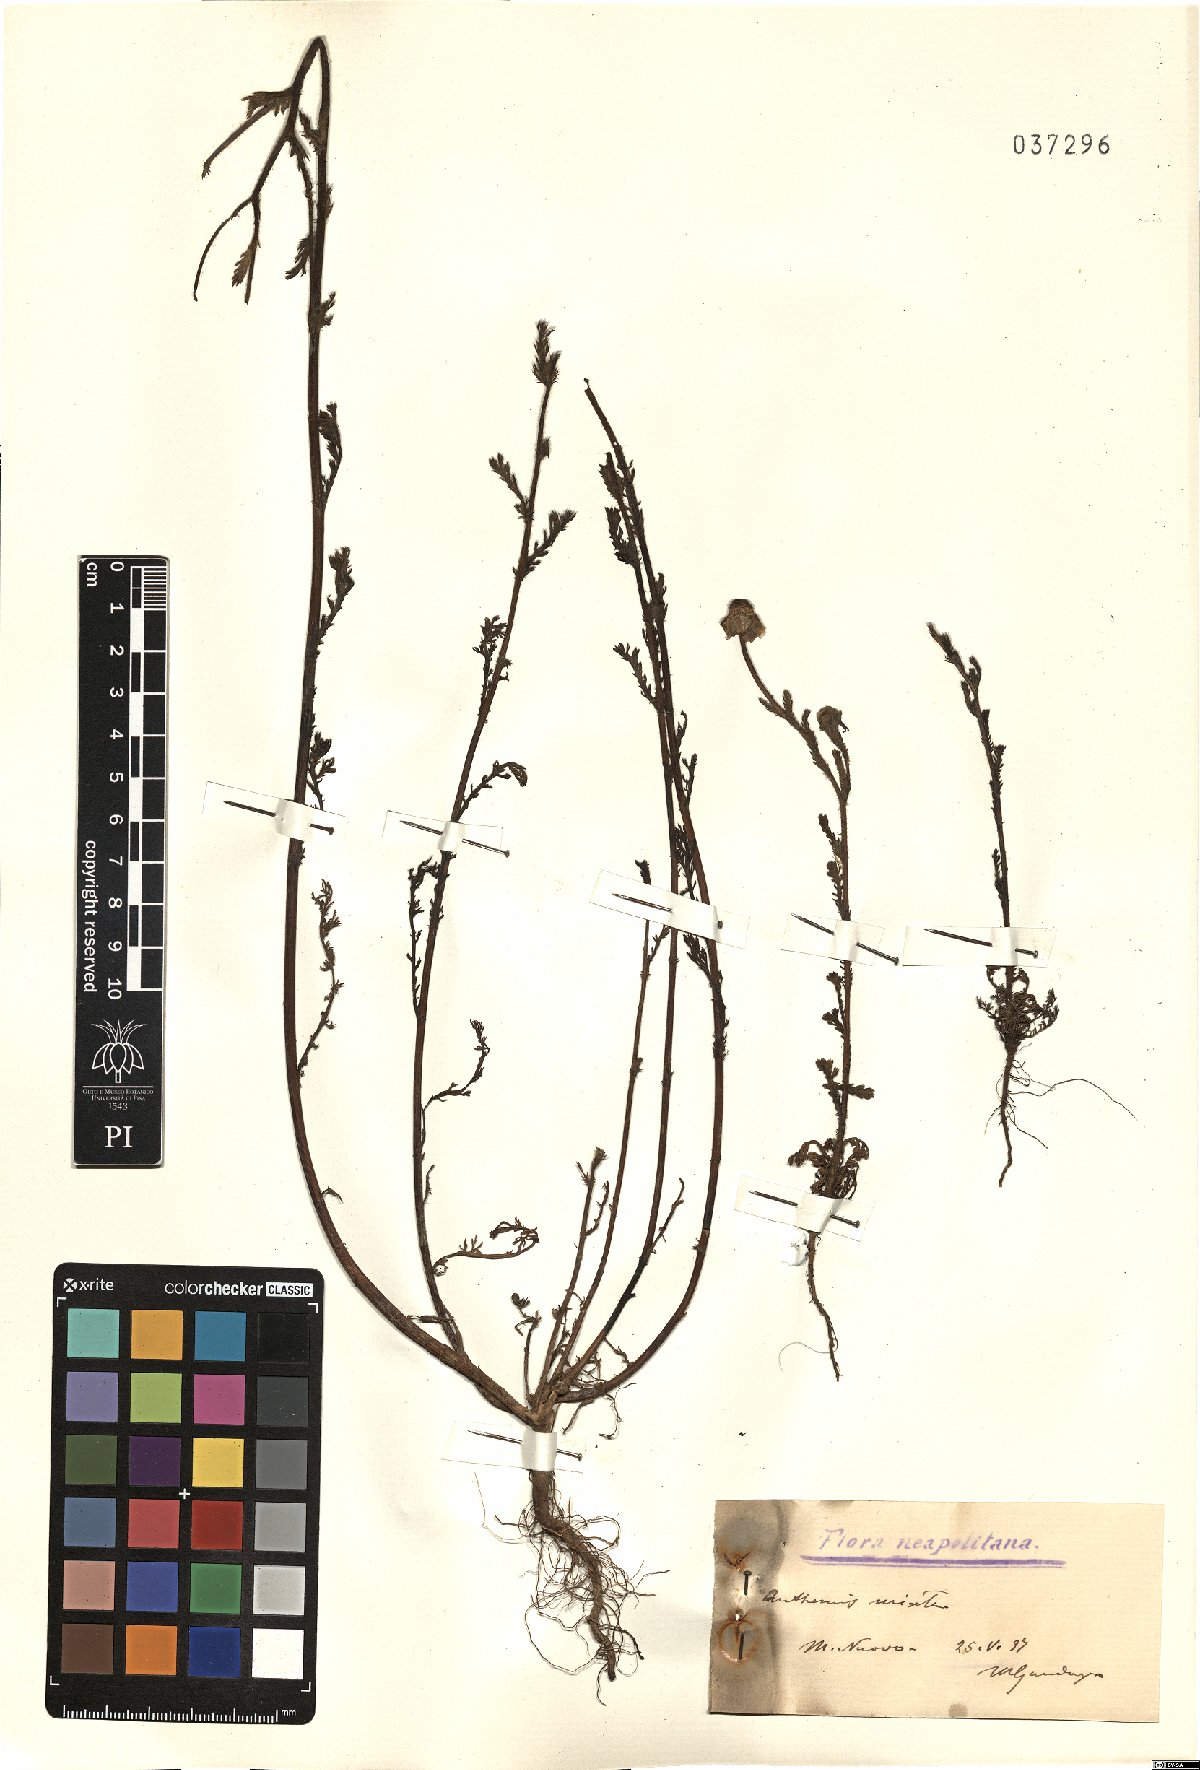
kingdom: Plantae
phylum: Tracheophyta
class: Magnoliopsida
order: Asterales
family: Asteraceae
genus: Cladanthus
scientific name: Cladanthus mixtus
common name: Weedy dogfennel
